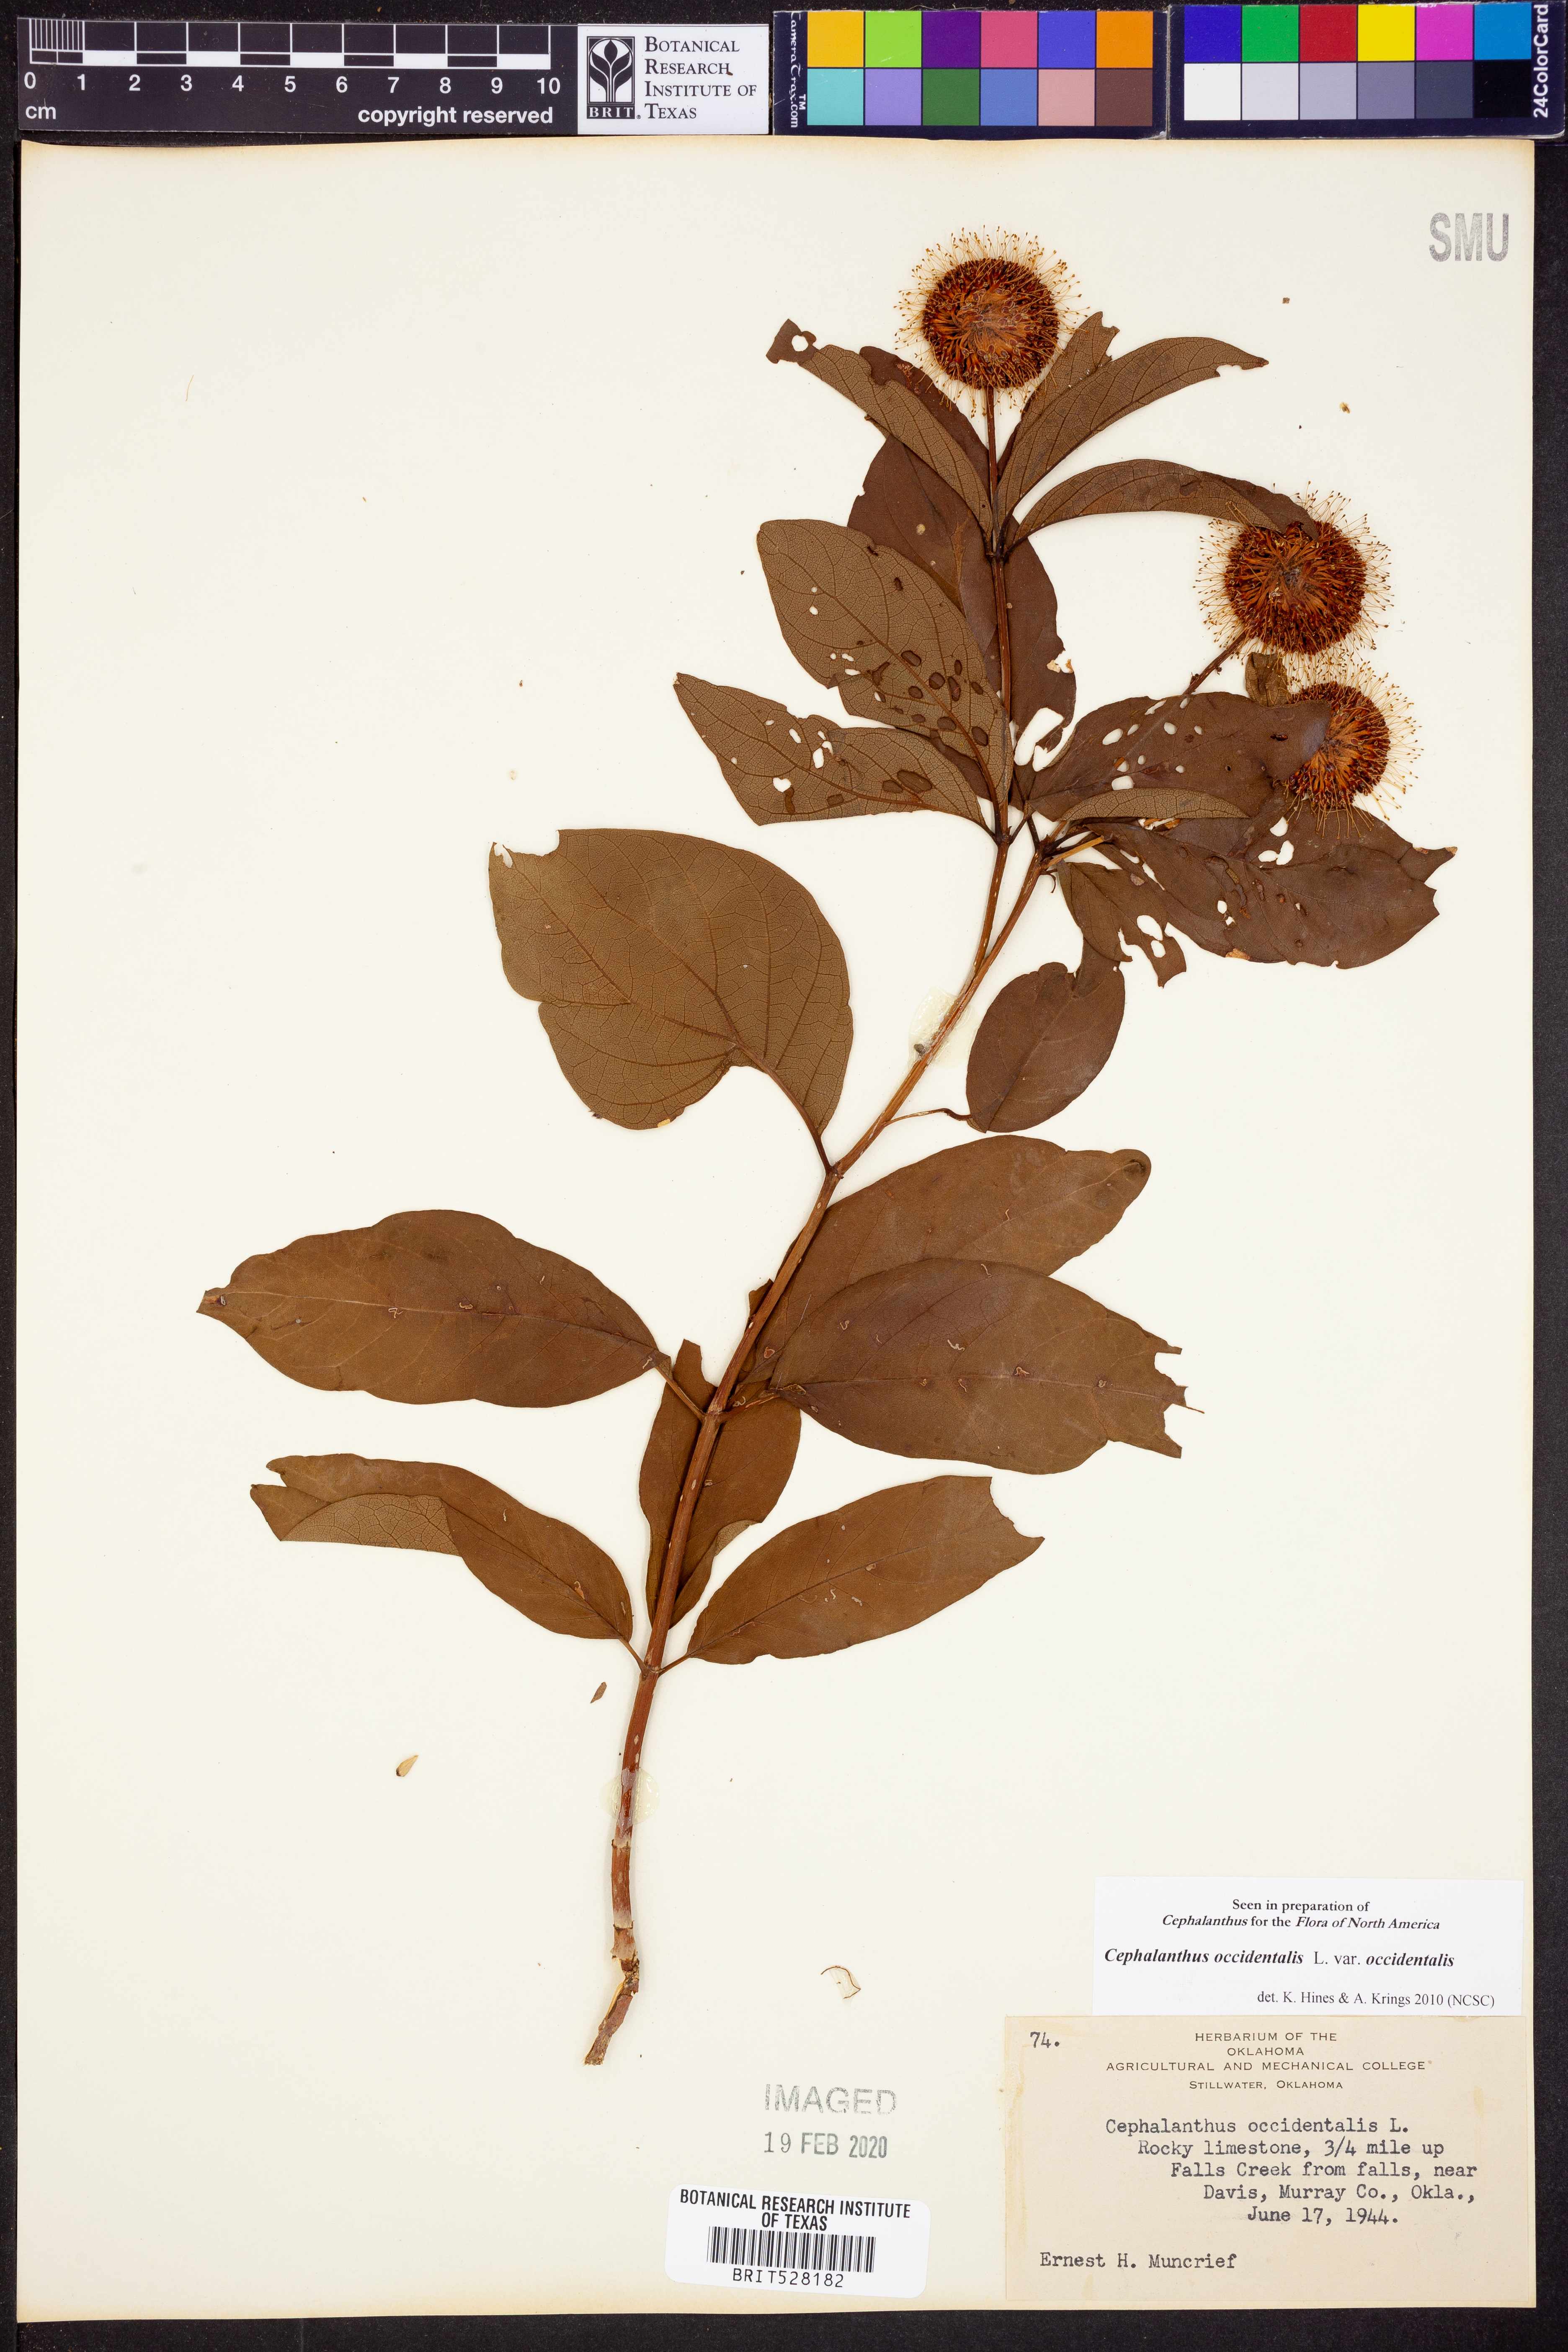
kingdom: Plantae
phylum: Tracheophyta
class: Magnoliopsida
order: Gentianales
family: Rubiaceae
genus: Cephalanthus
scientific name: Cephalanthus occidentalis
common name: Button-willow
